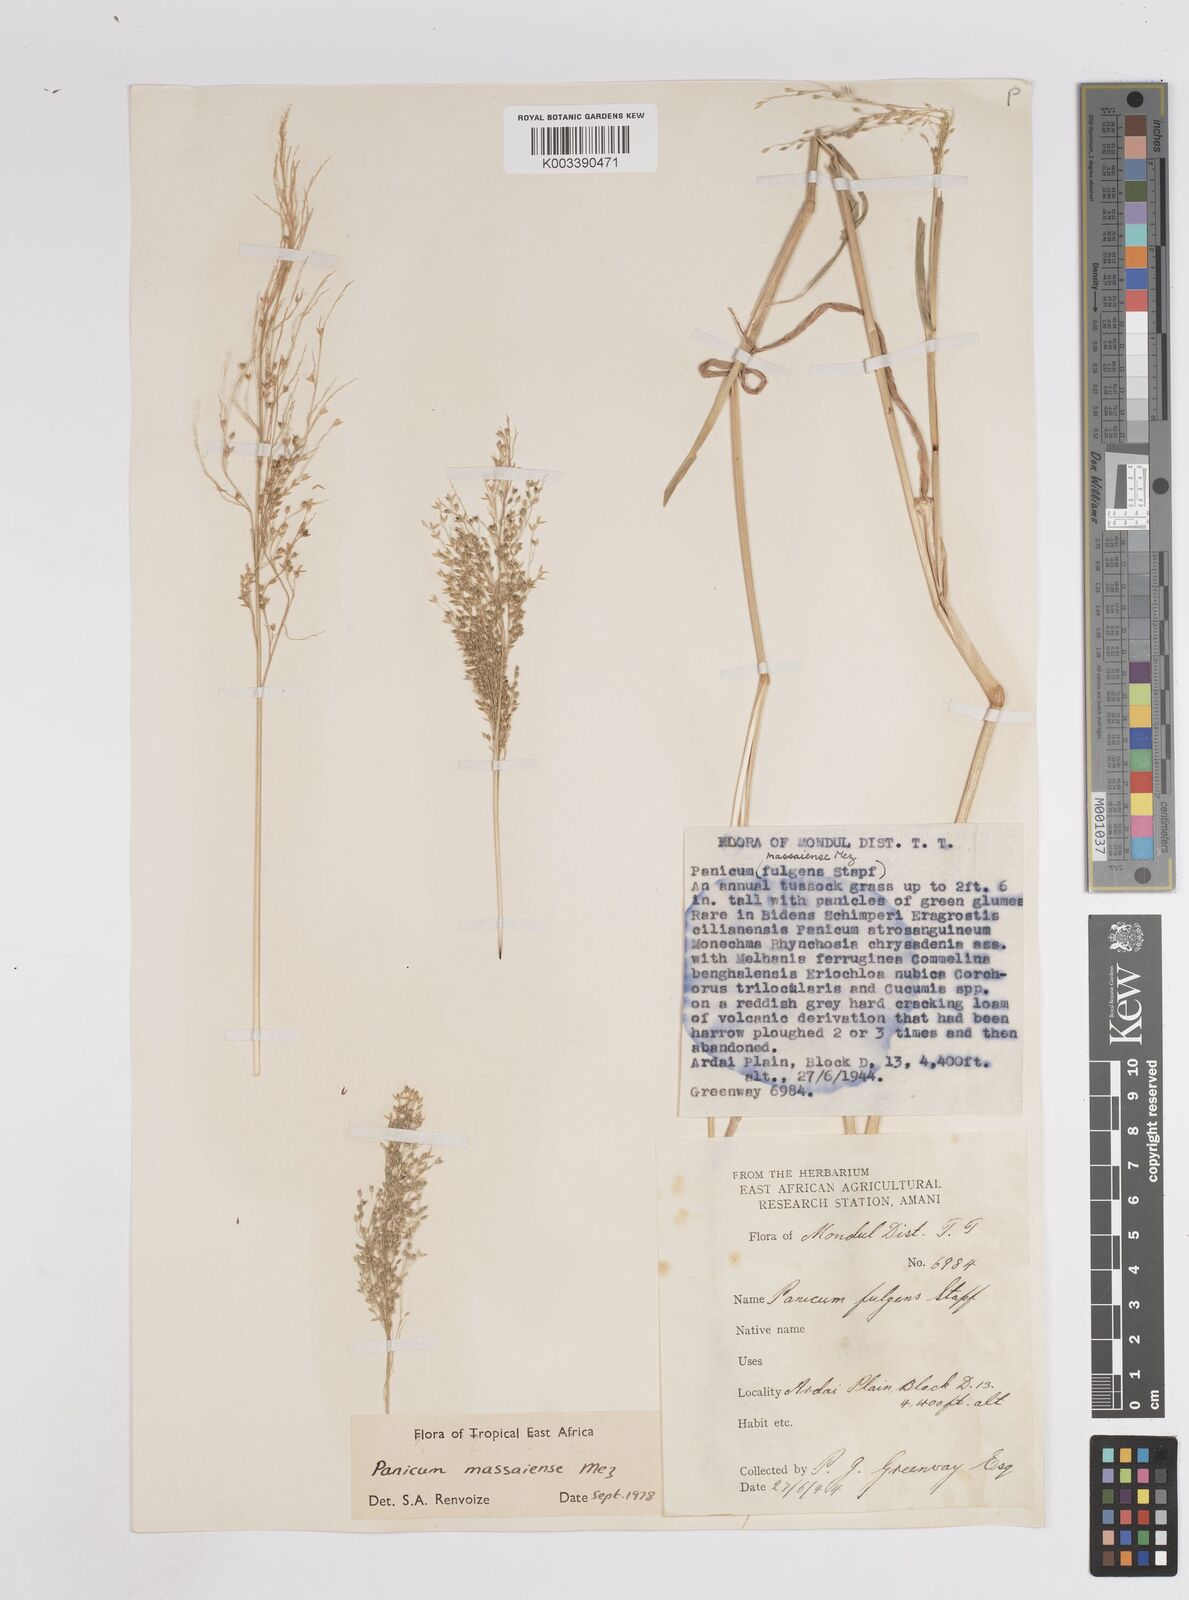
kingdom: Plantae
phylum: Tracheophyta
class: Liliopsida
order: Poales
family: Poaceae
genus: Panicum
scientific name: Panicum massaiense
